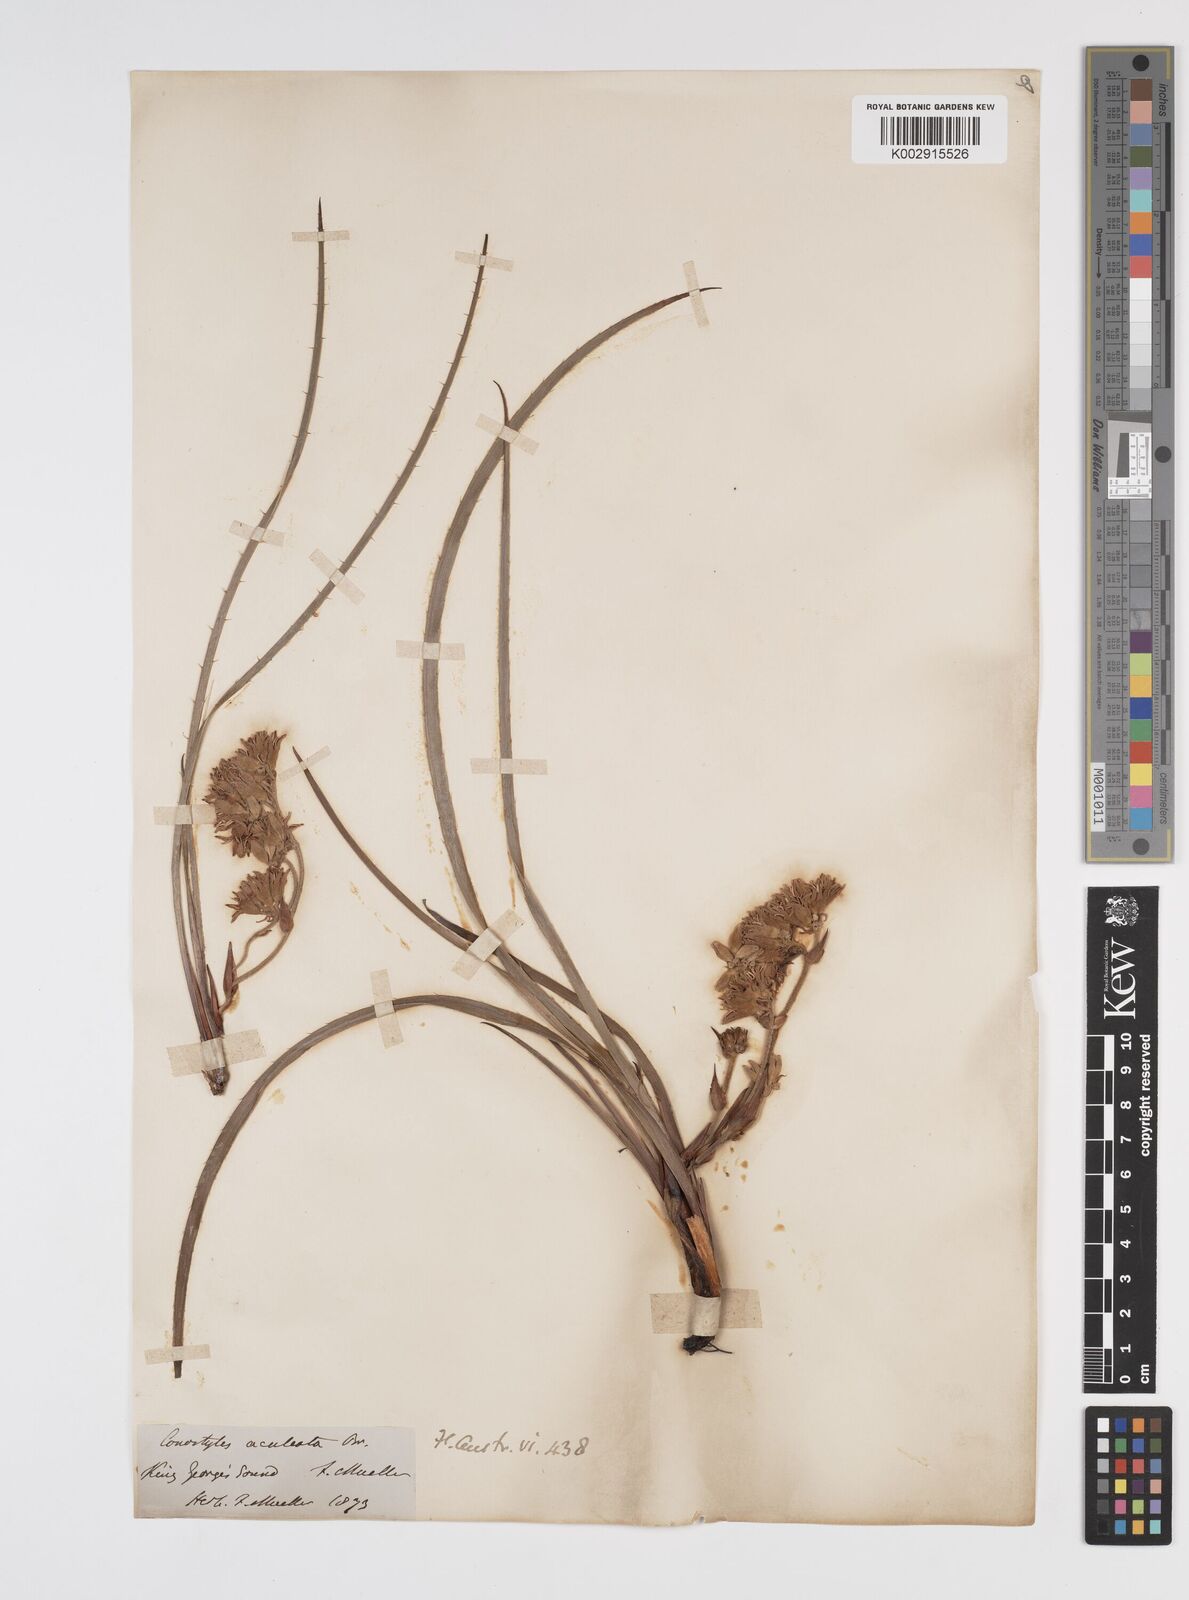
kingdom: Plantae
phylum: Tracheophyta
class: Liliopsida
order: Commelinales
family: Haemodoraceae
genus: Conostylis
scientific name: Conostylis aculeata
